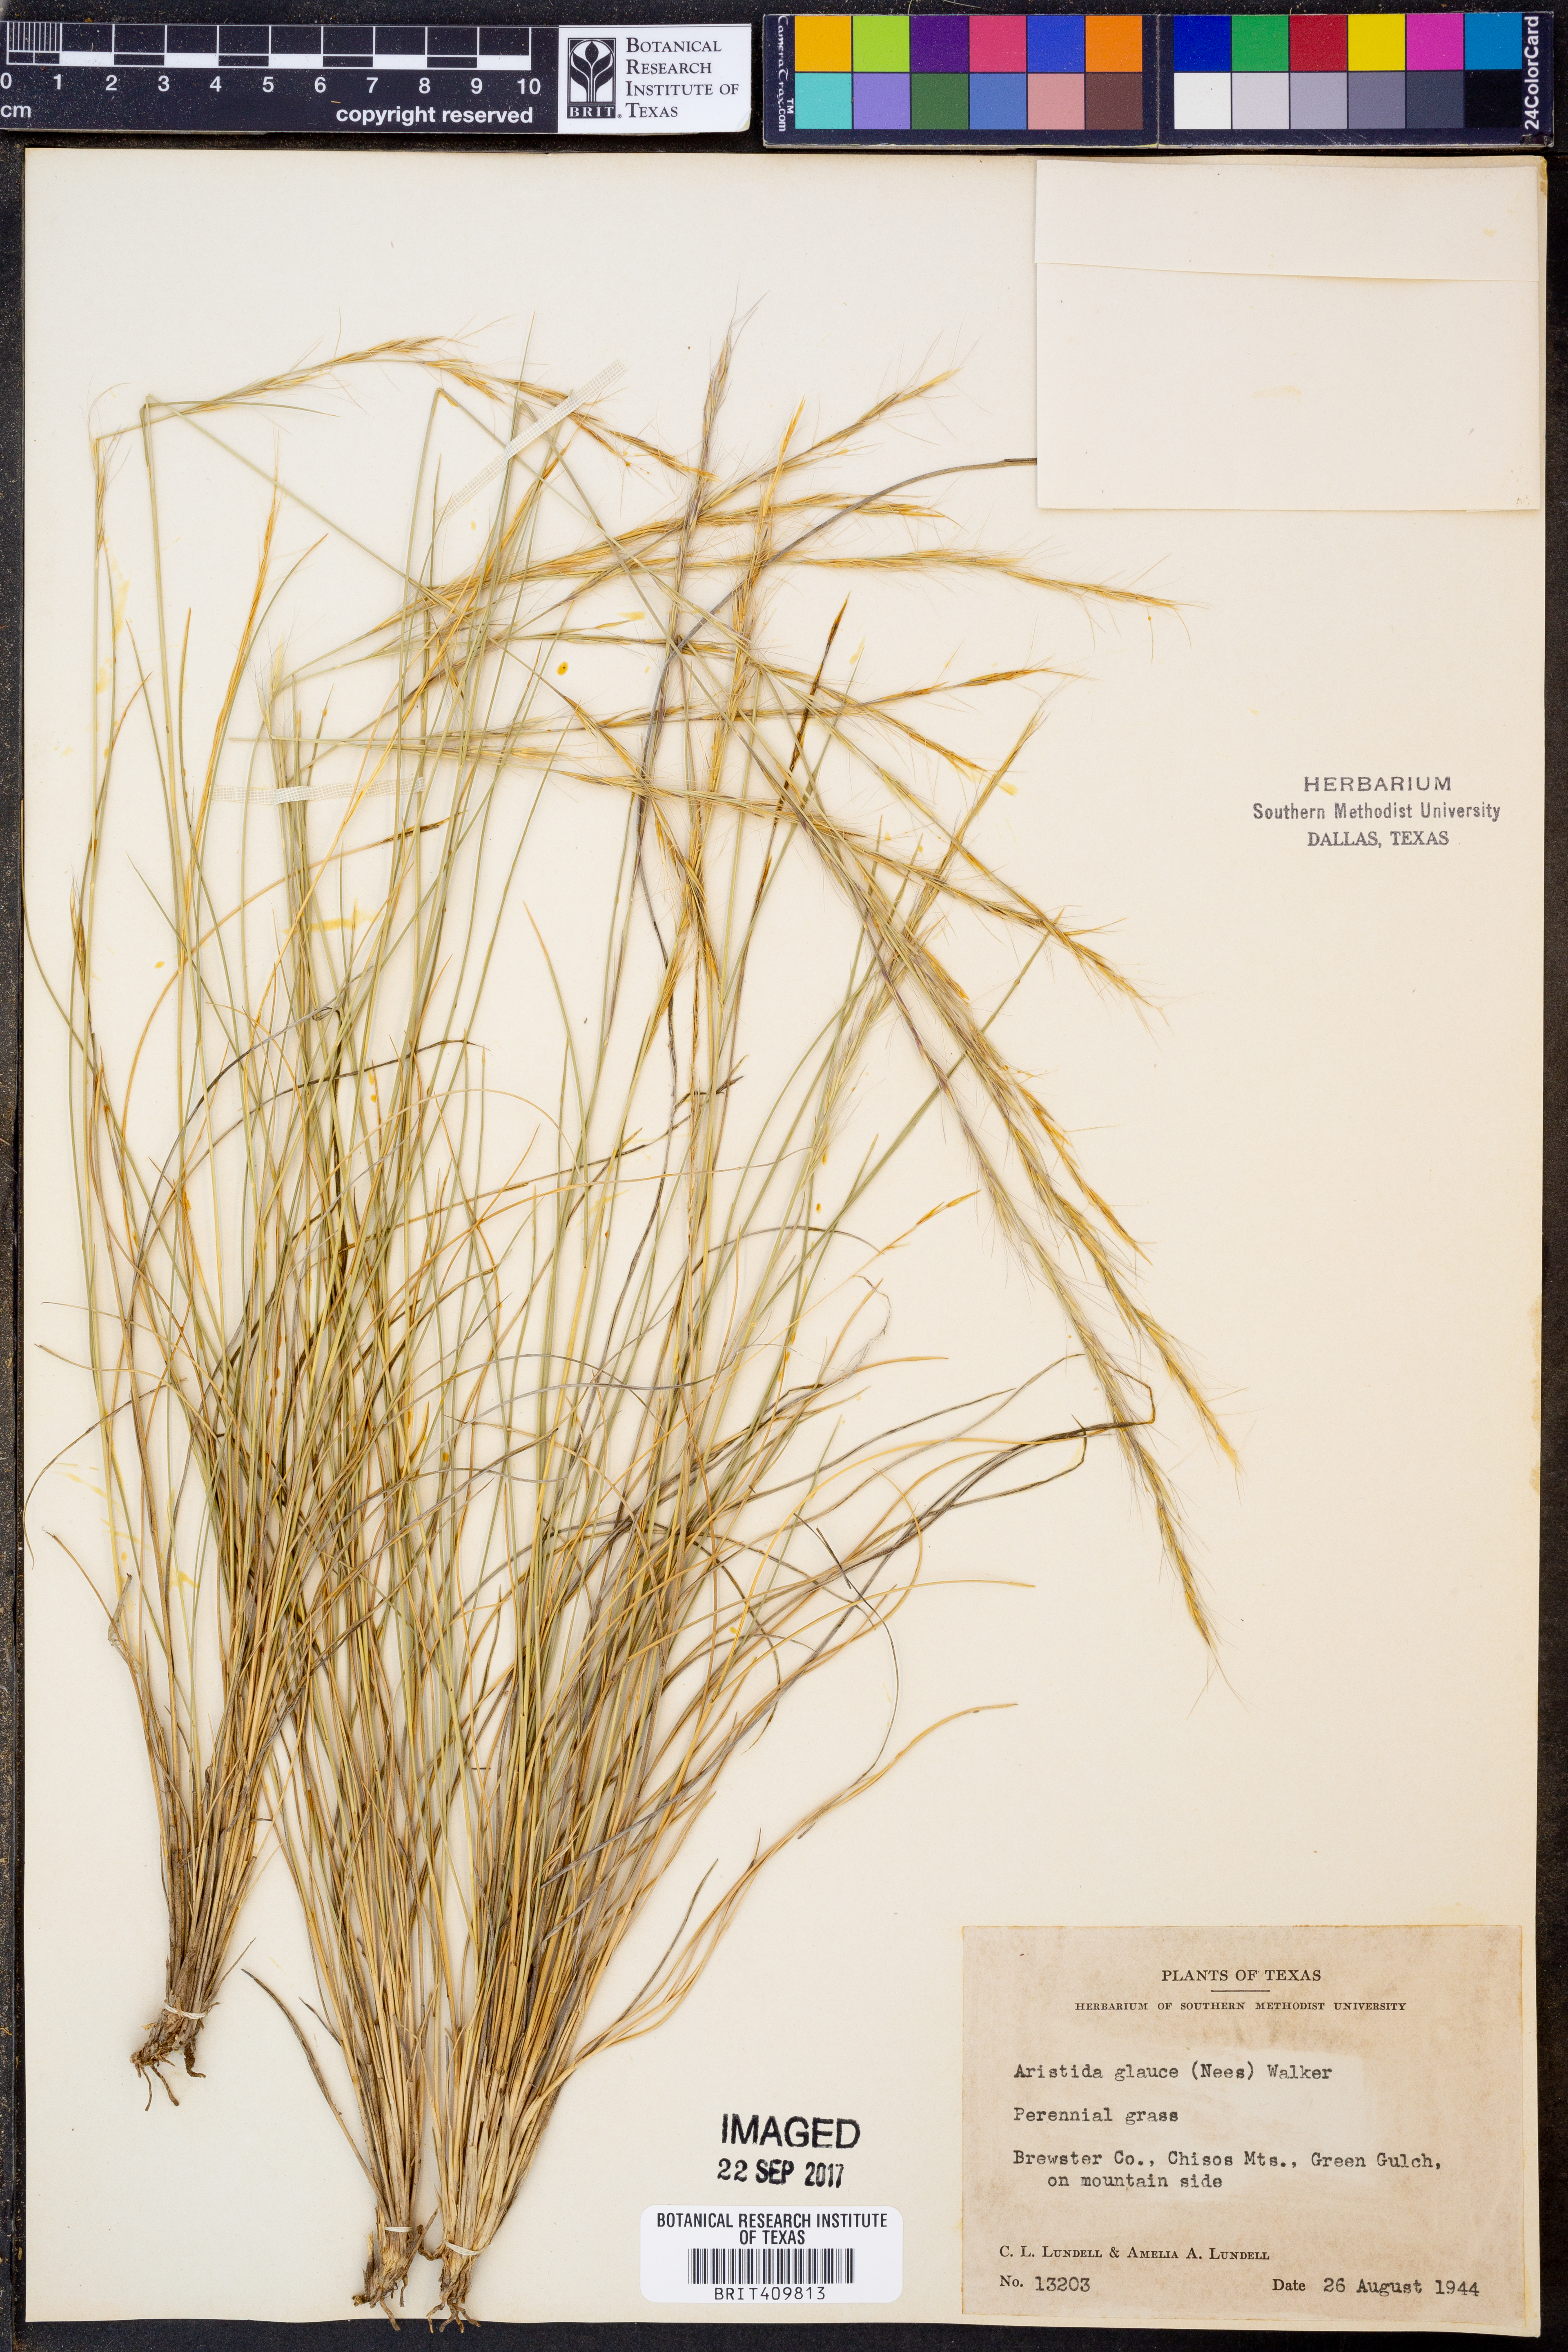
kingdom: Plantae
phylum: Tracheophyta
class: Liliopsida
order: Poales
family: Poaceae
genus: Aristida
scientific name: Aristida glauca
